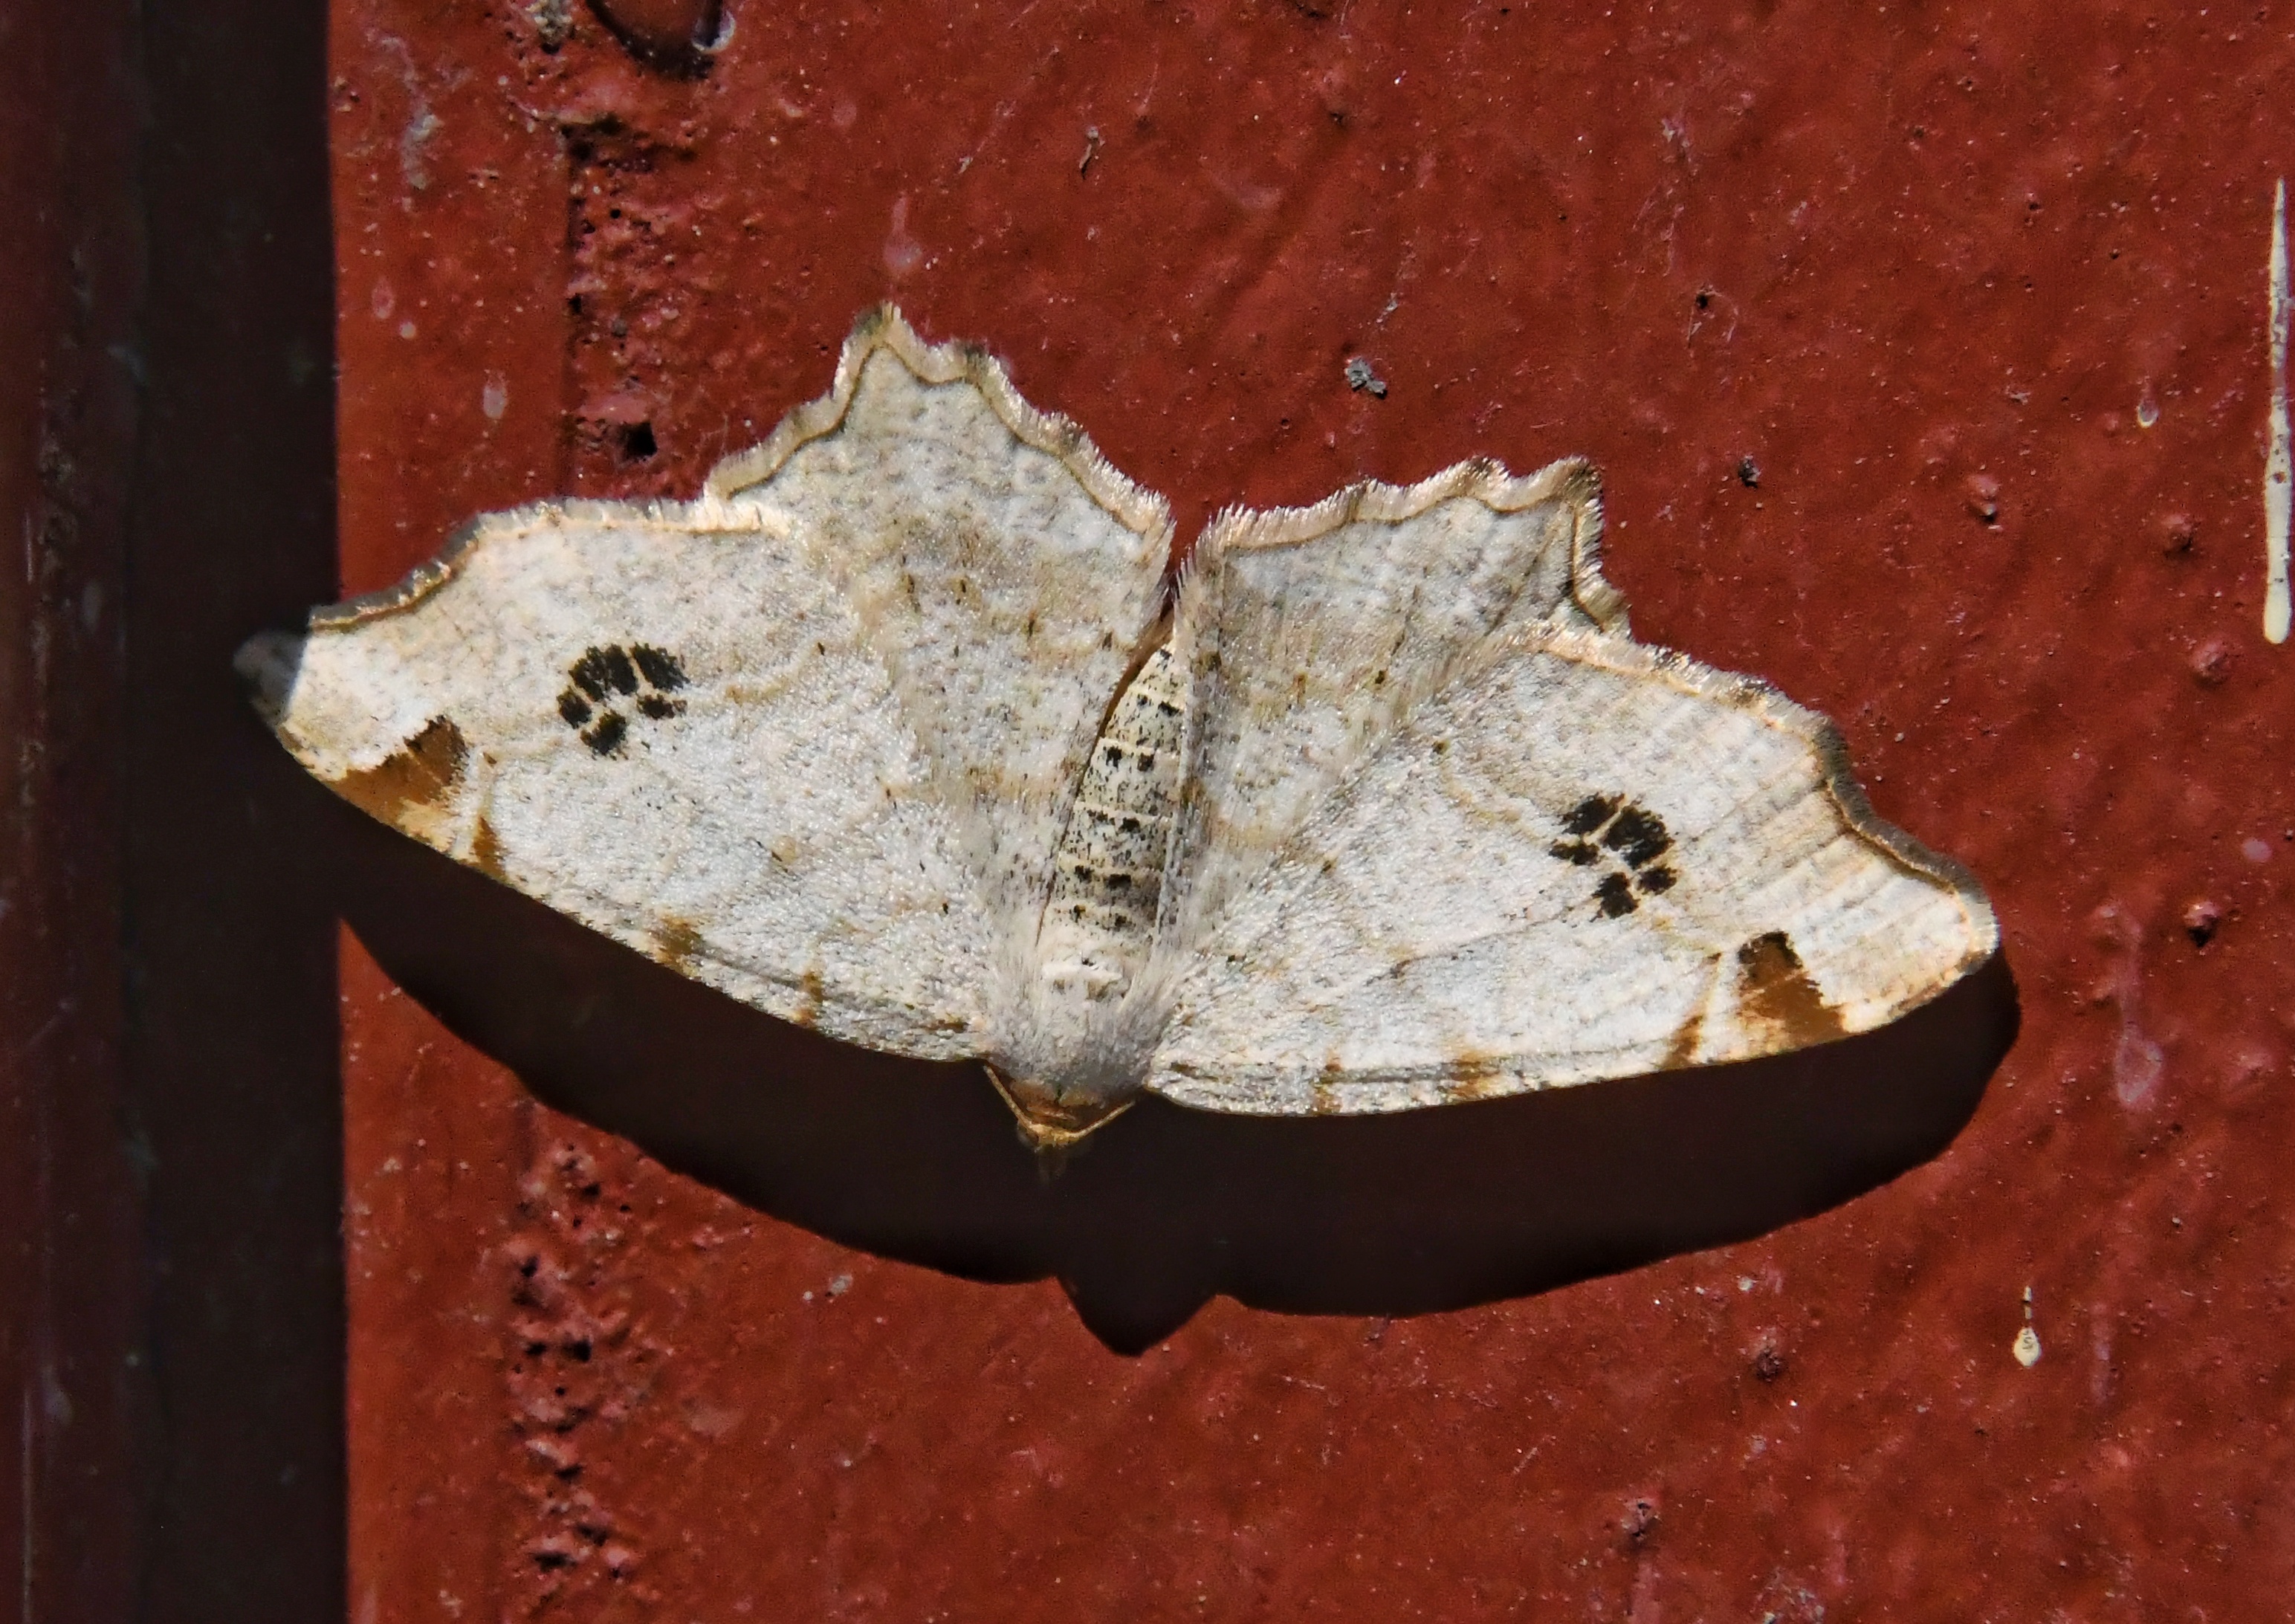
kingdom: Animalia
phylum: Arthropoda
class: Insecta
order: Lepidoptera
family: Geometridae
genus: Macaria
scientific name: Macaria notata
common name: Peacock moth
